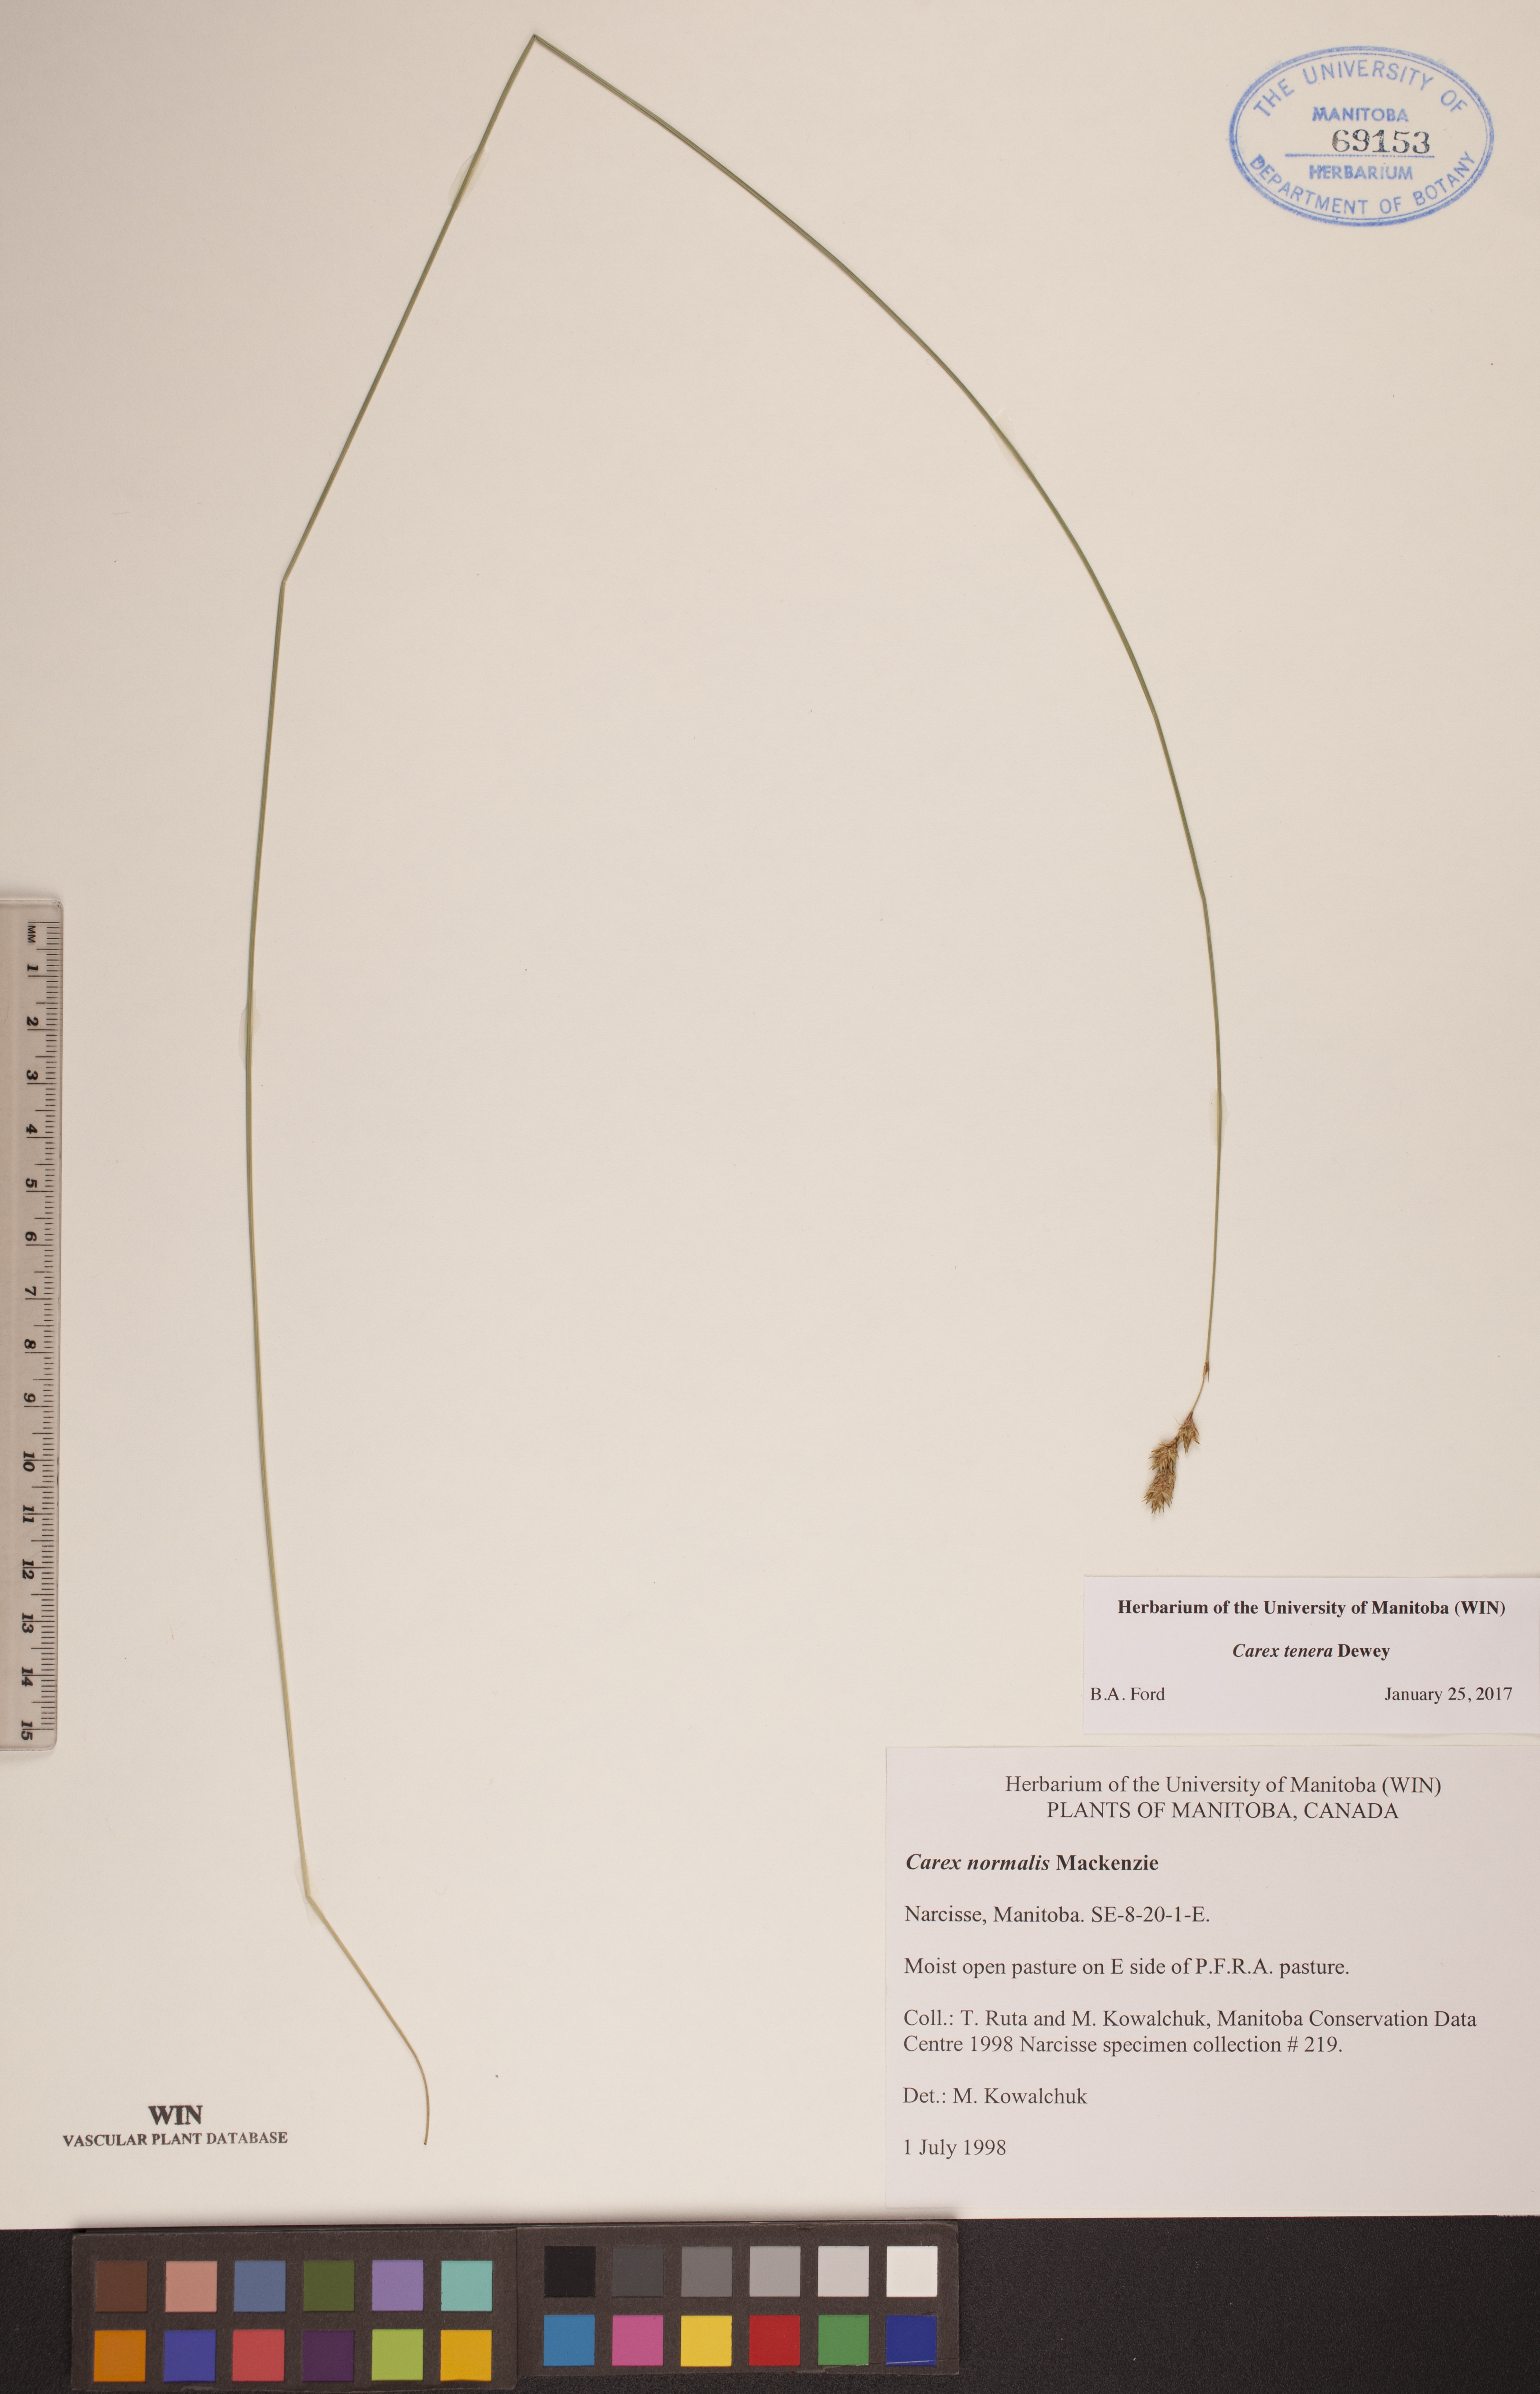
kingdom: Plantae
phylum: Tracheophyta
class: Liliopsida
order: Poales
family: Cyperaceae
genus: Carex
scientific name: Carex tenera
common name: Broad-fruited sedge
